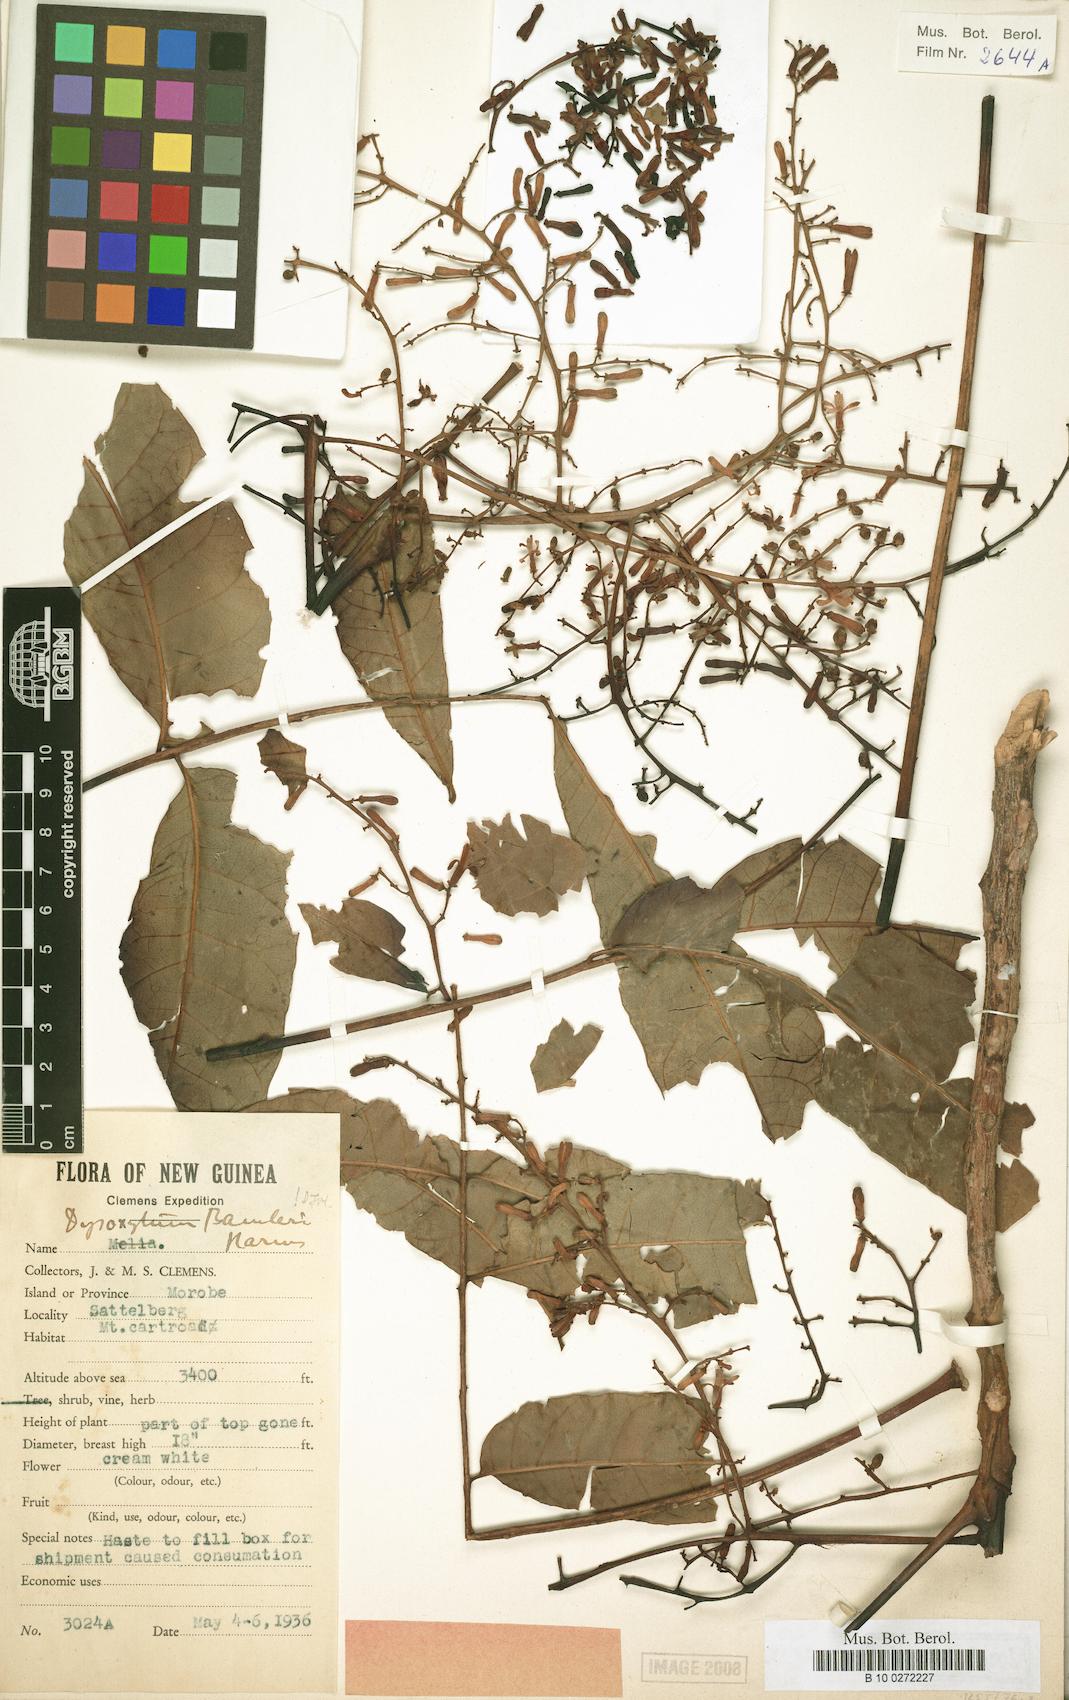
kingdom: Plantae
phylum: Tracheophyta
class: Magnoliopsida
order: Sapindales
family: Meliaceae
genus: Prasoxylon
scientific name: Prasoxylon hapalanthum
